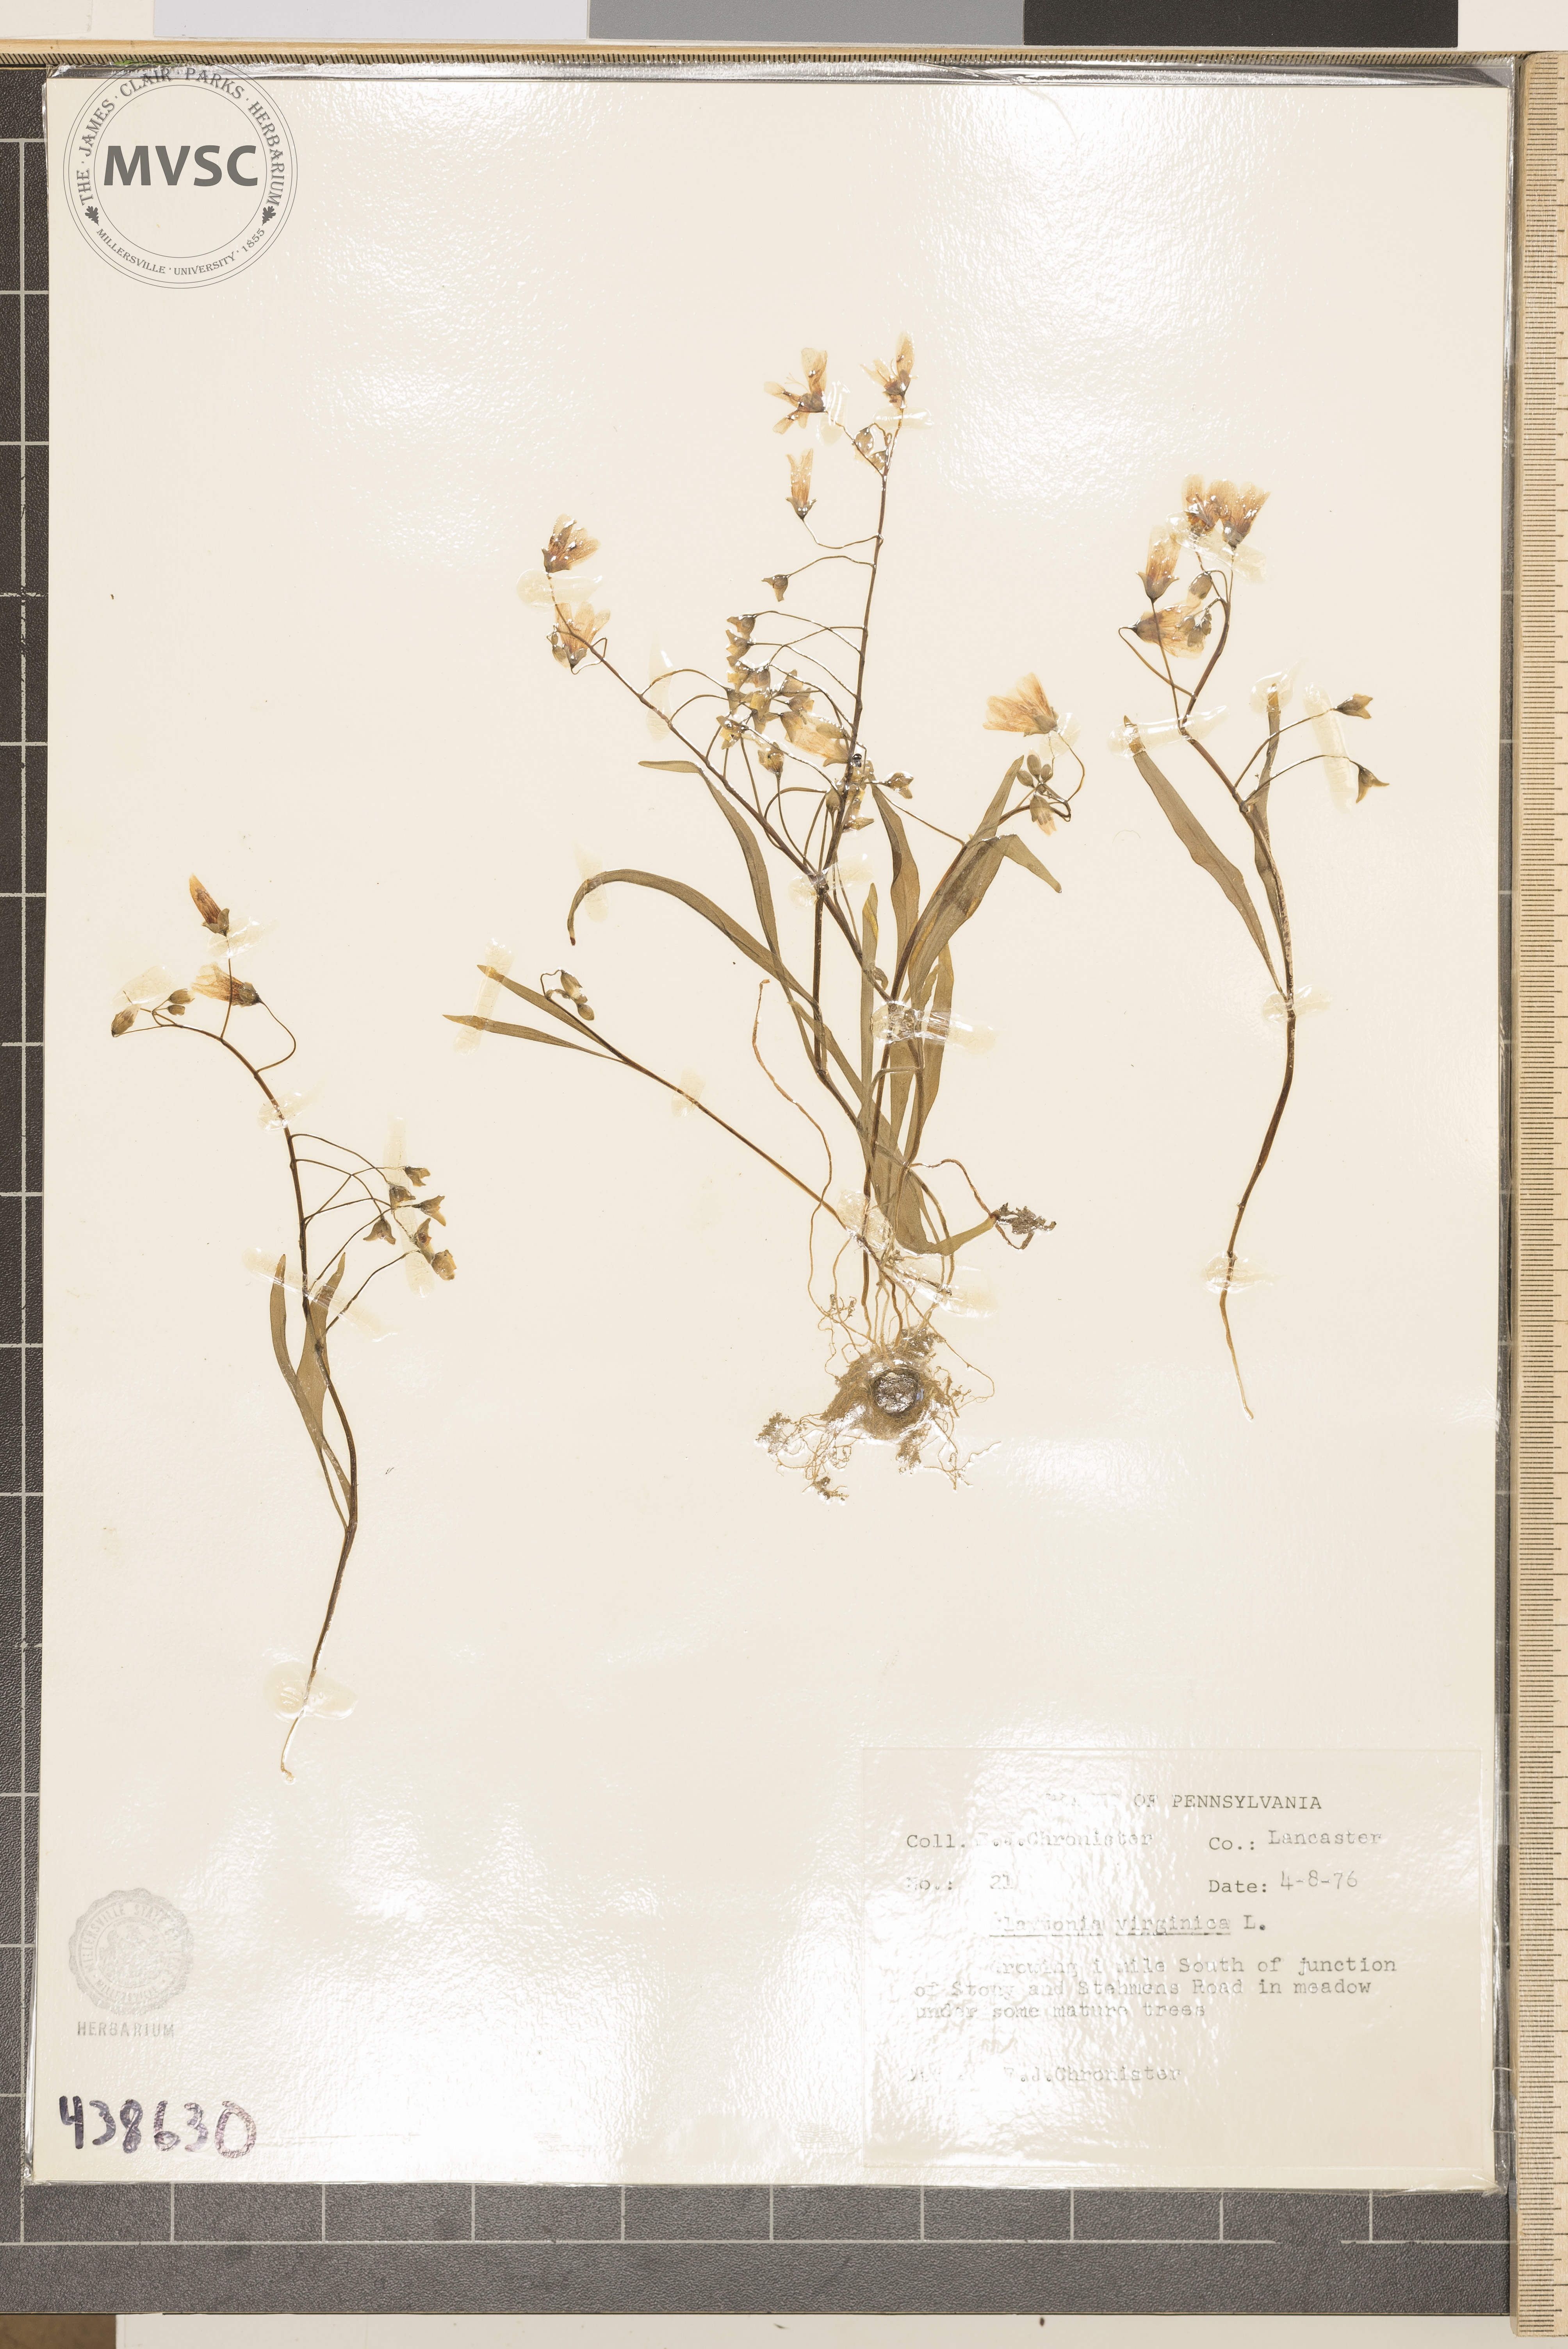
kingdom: Plantae
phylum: Tracheophyta
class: Magnoliopsida
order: Caryophyllales
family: Montiaceae
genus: Claytonia
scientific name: Claytonia virginica
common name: Virginia springbeauty
